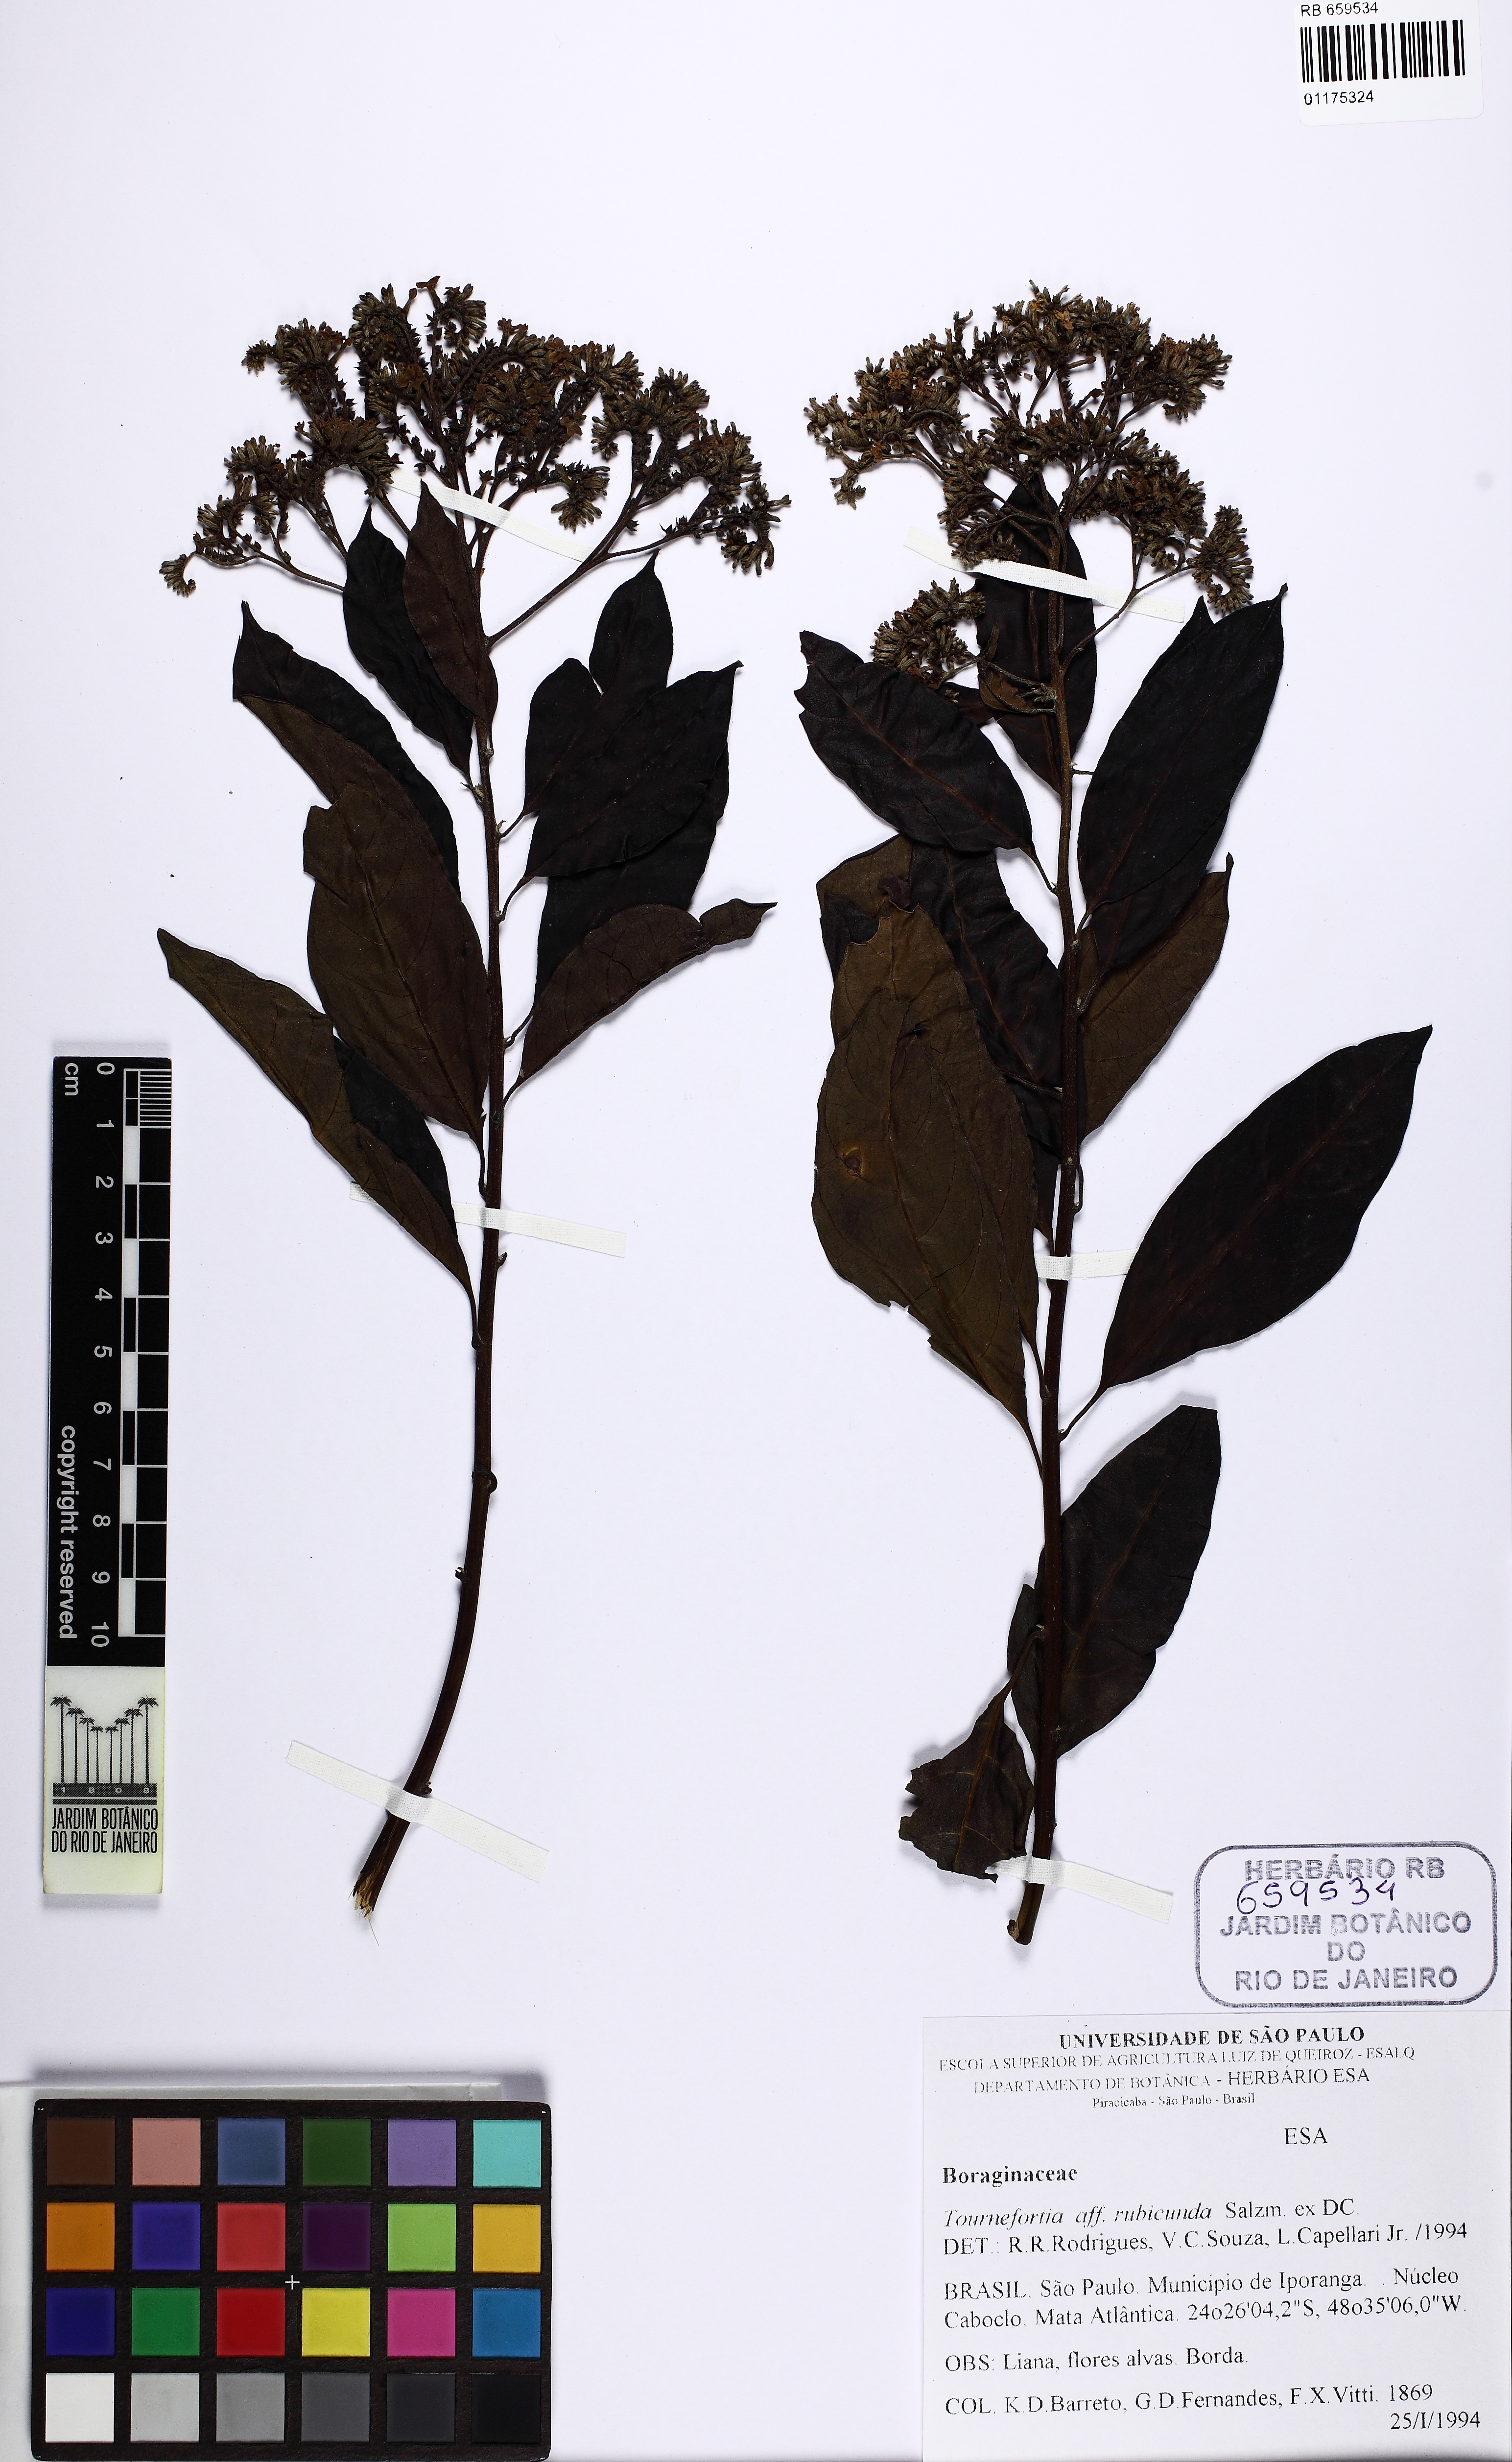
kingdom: Plantae
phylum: Tracheophyta
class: Magnoliopsida
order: Boraginales
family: Heliotropiaceae
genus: Myriopus
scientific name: Myriopus rubicundus
